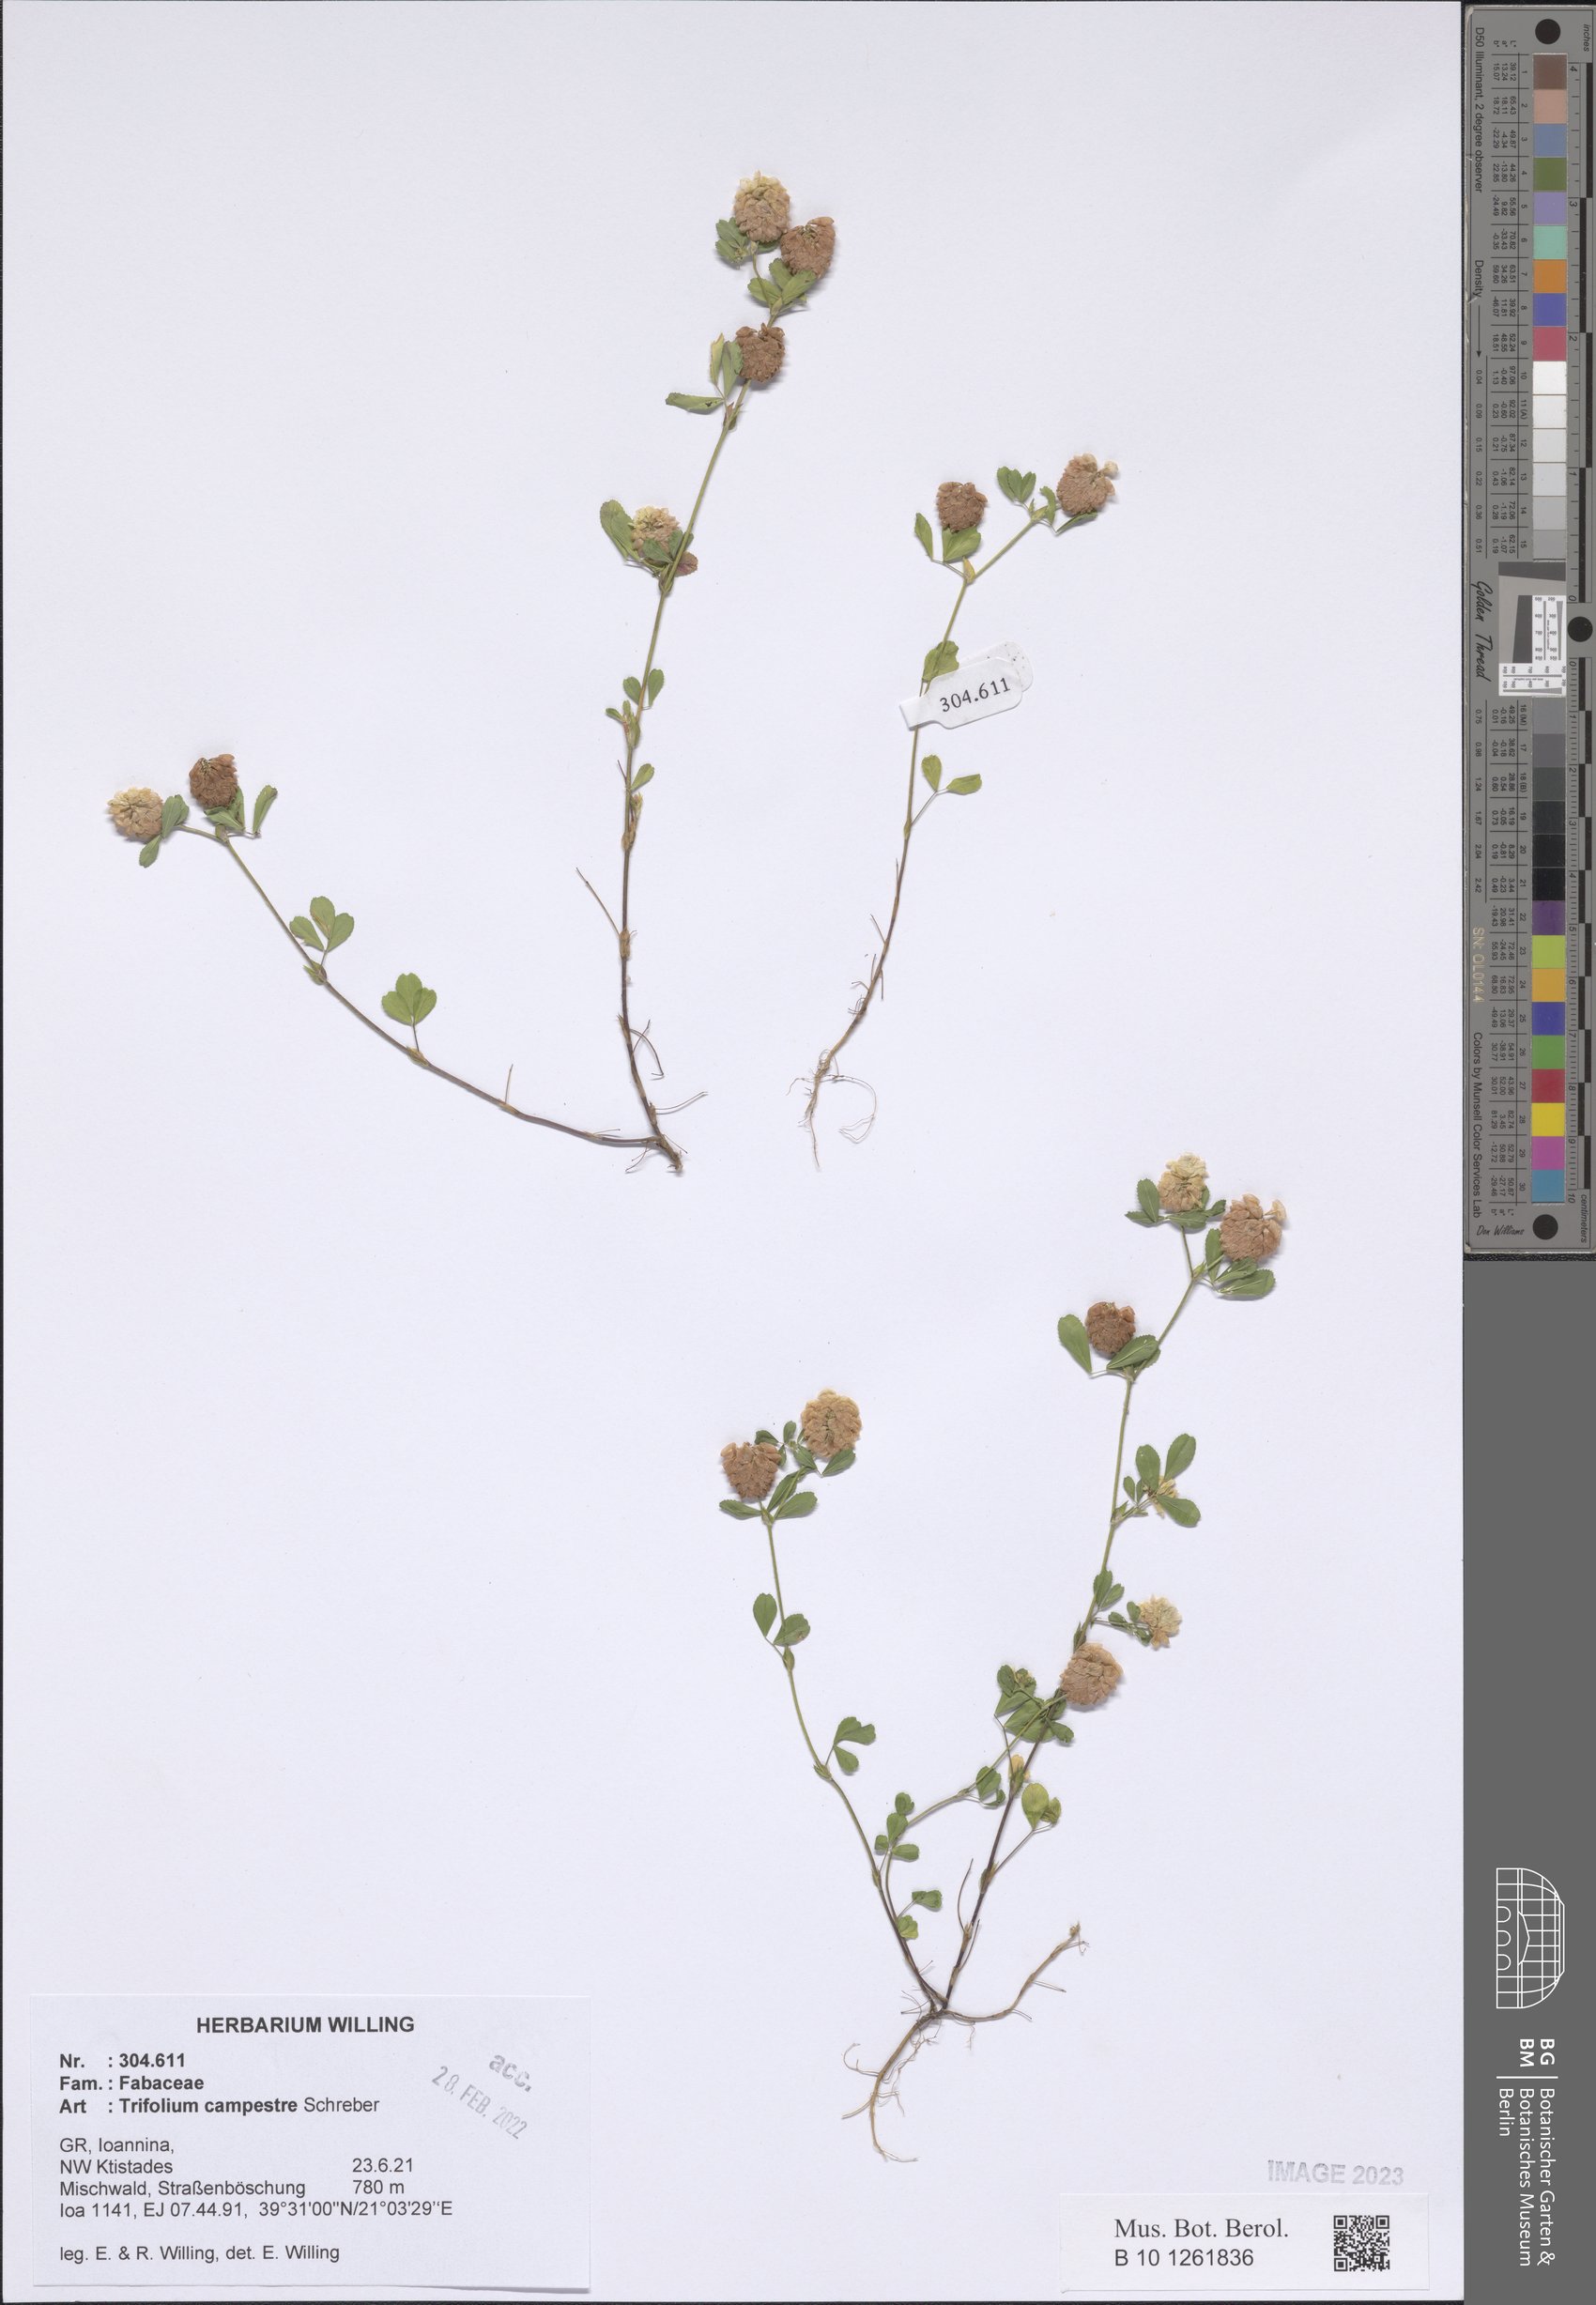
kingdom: Plantae
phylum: Tracheophyta
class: Magnoliopsida
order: Fabales
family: Fabaceae
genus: Trifolium
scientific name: Trifolium campestre
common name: Field clover
